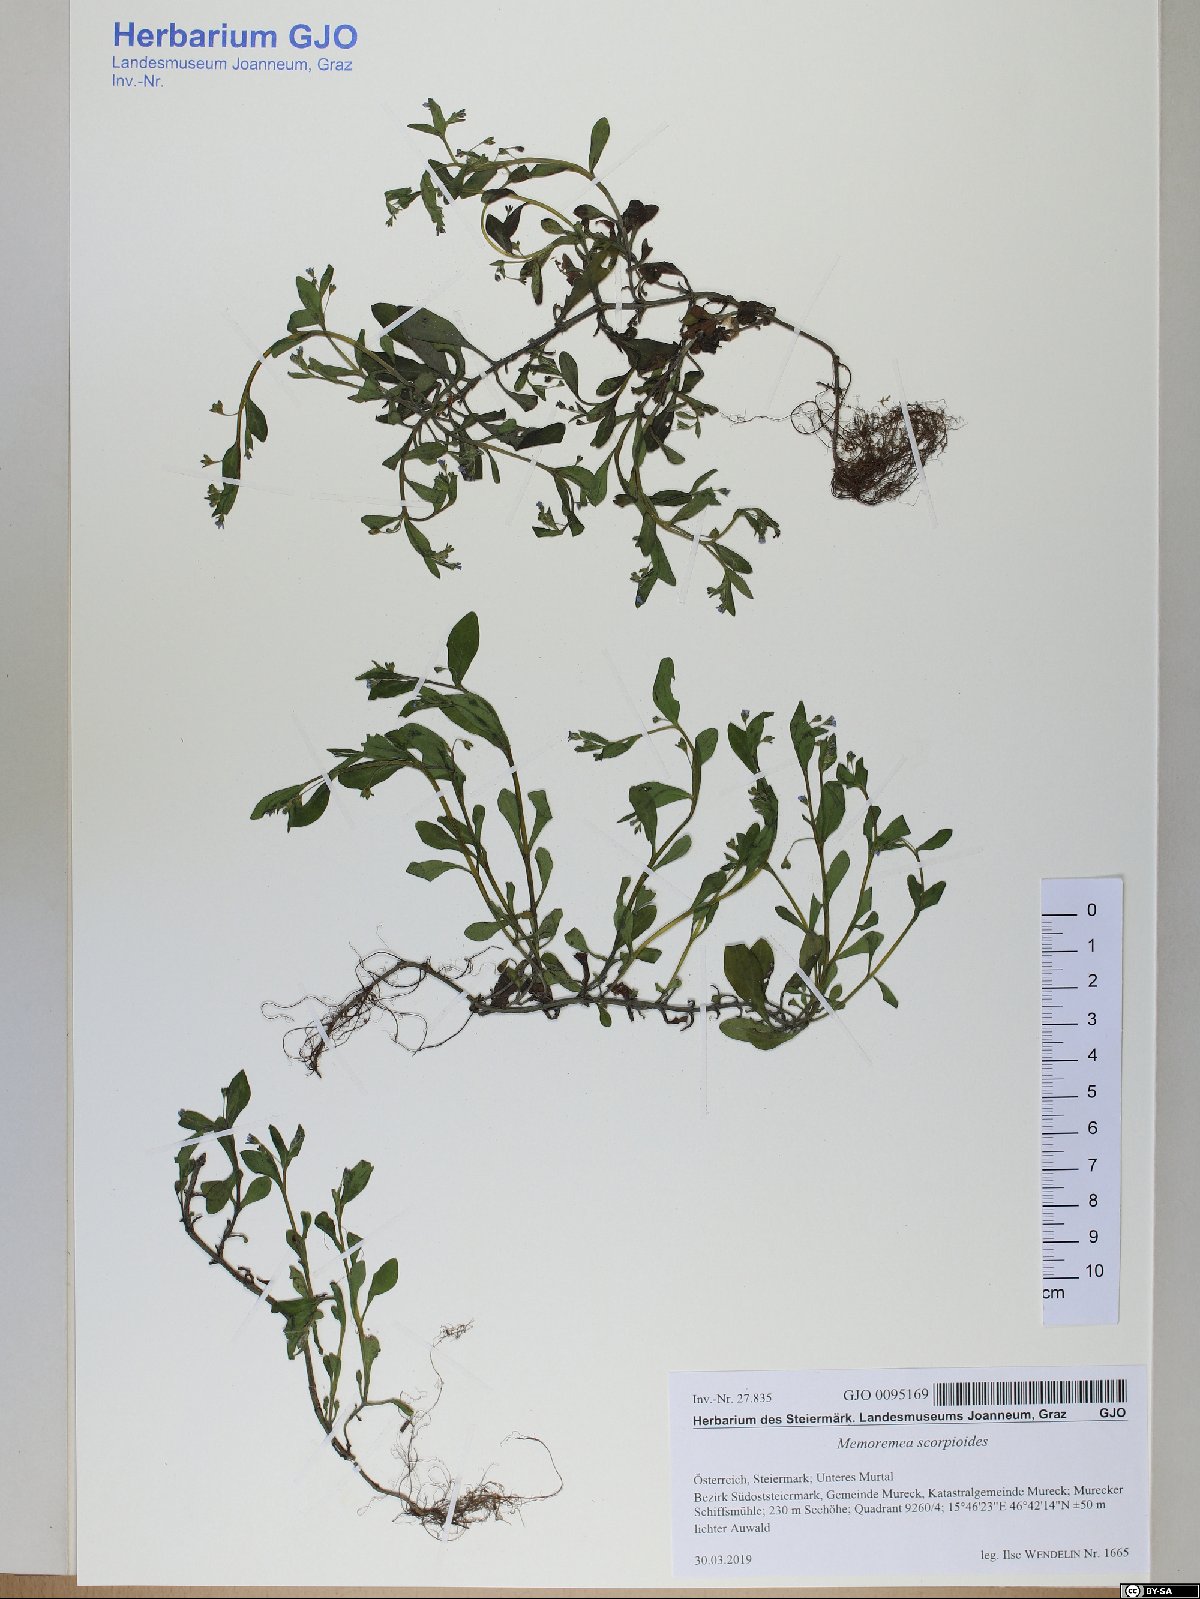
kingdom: Plantae
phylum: Tracheophyta
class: Magnoliopsida
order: Boraginales
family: Boraginaceae
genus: Memoremea
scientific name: Memoremea scorpioides
